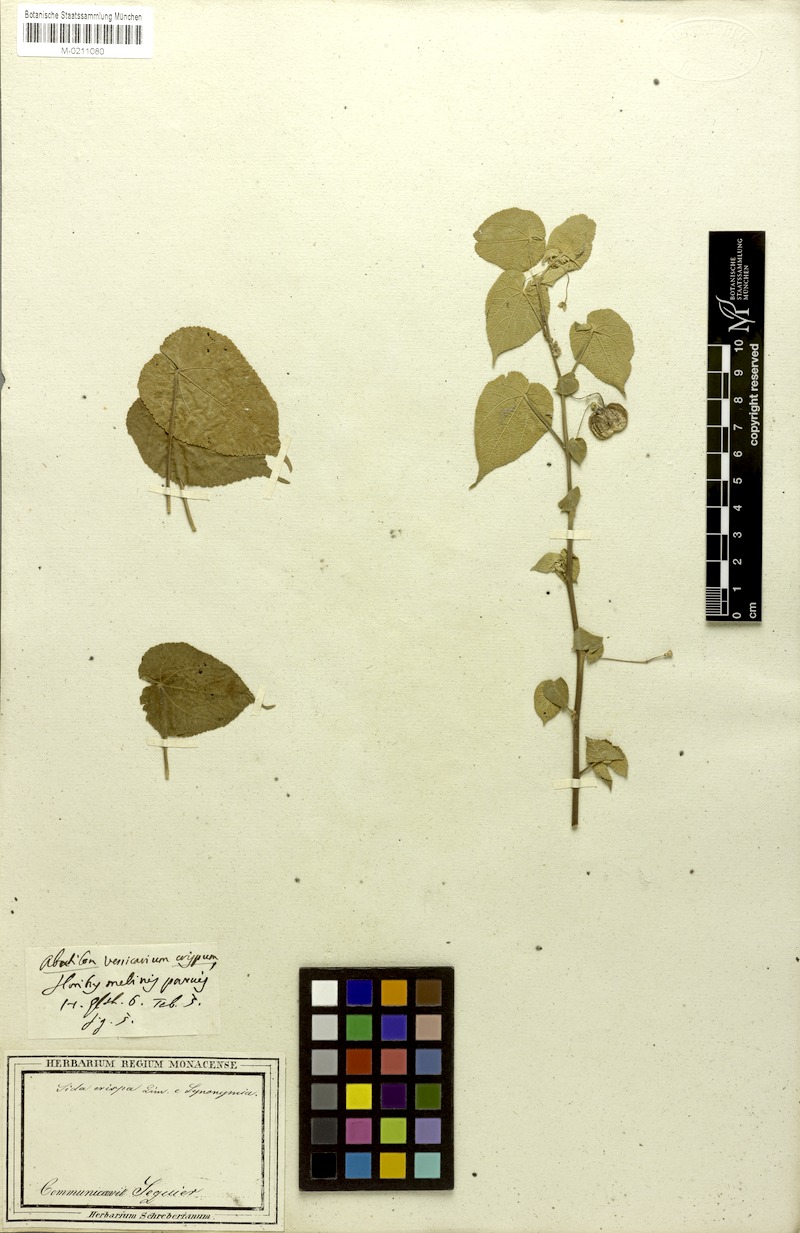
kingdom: Plantae
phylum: Tracheophyta
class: Magnoliopsida
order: Malvales
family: Malvaceae
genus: Herissantia
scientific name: Herissantia crispa
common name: Bladdermallow
